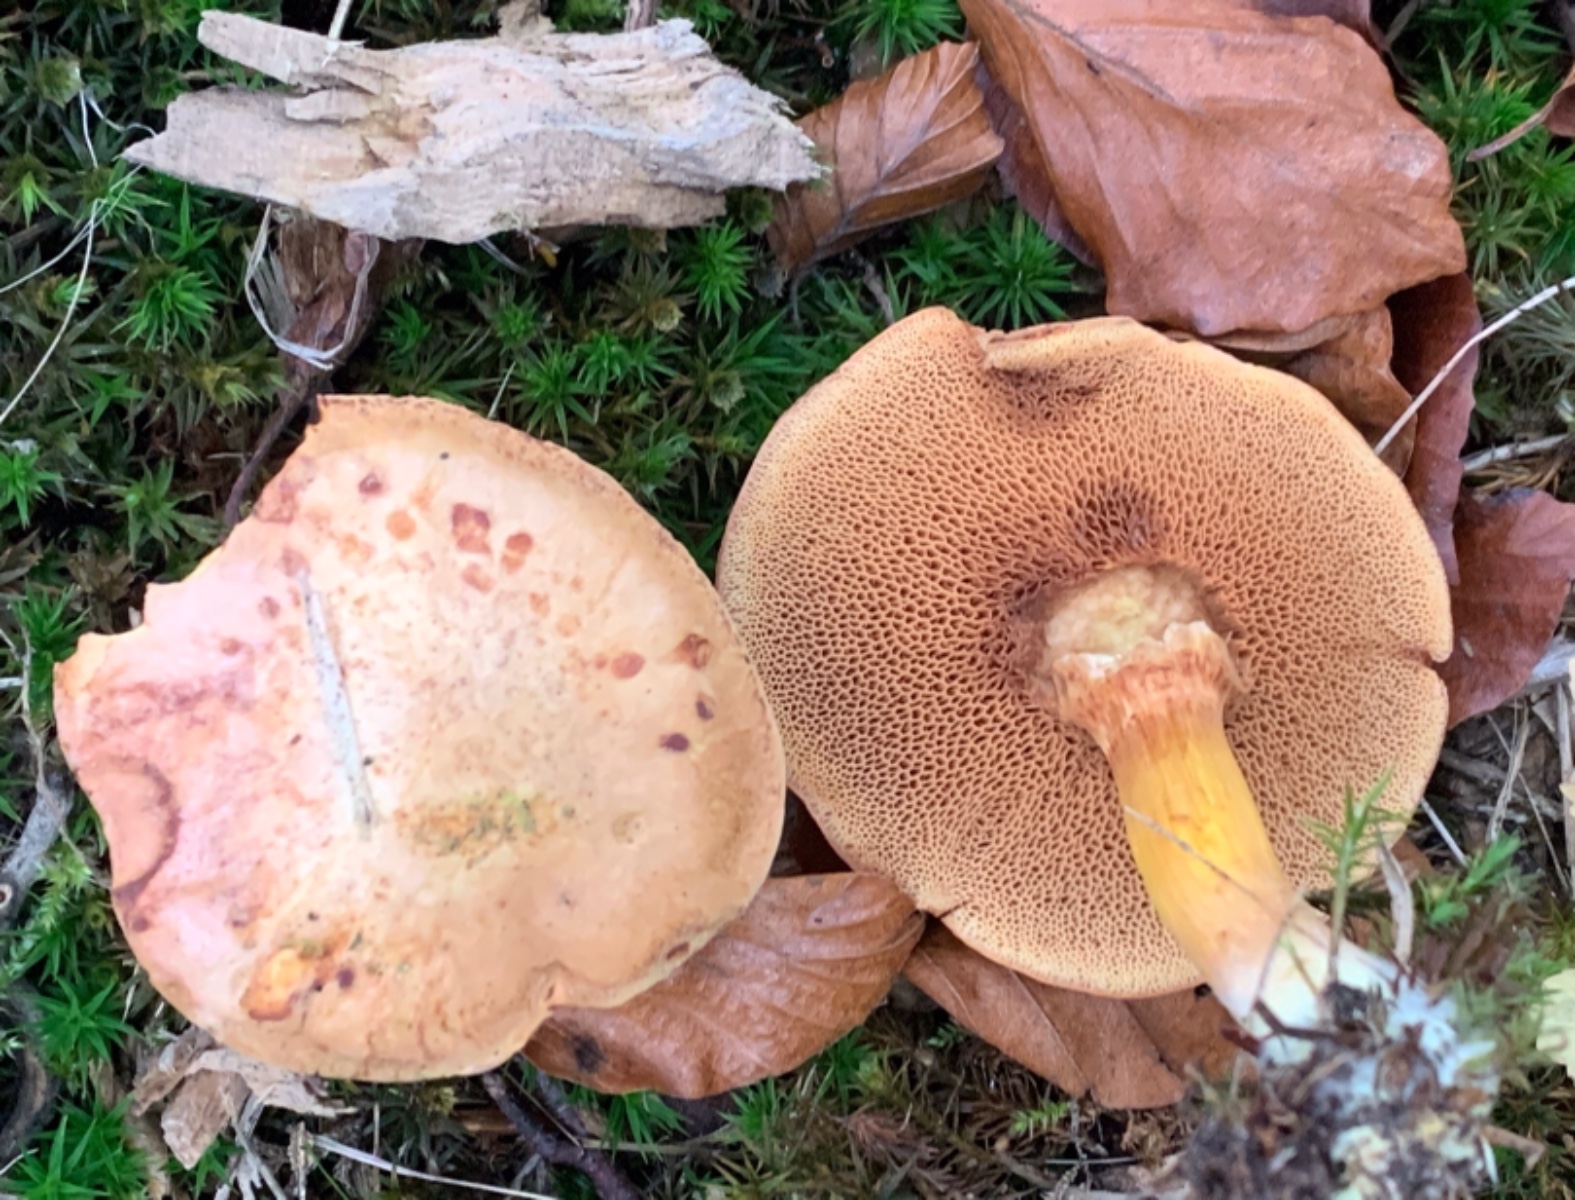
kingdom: Fungi
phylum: Basidiomycota
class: Agaricomycetes
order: Boletales
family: Boletaceae
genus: Chalciporus
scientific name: Chalciporus piperatus
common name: peberrørhat
